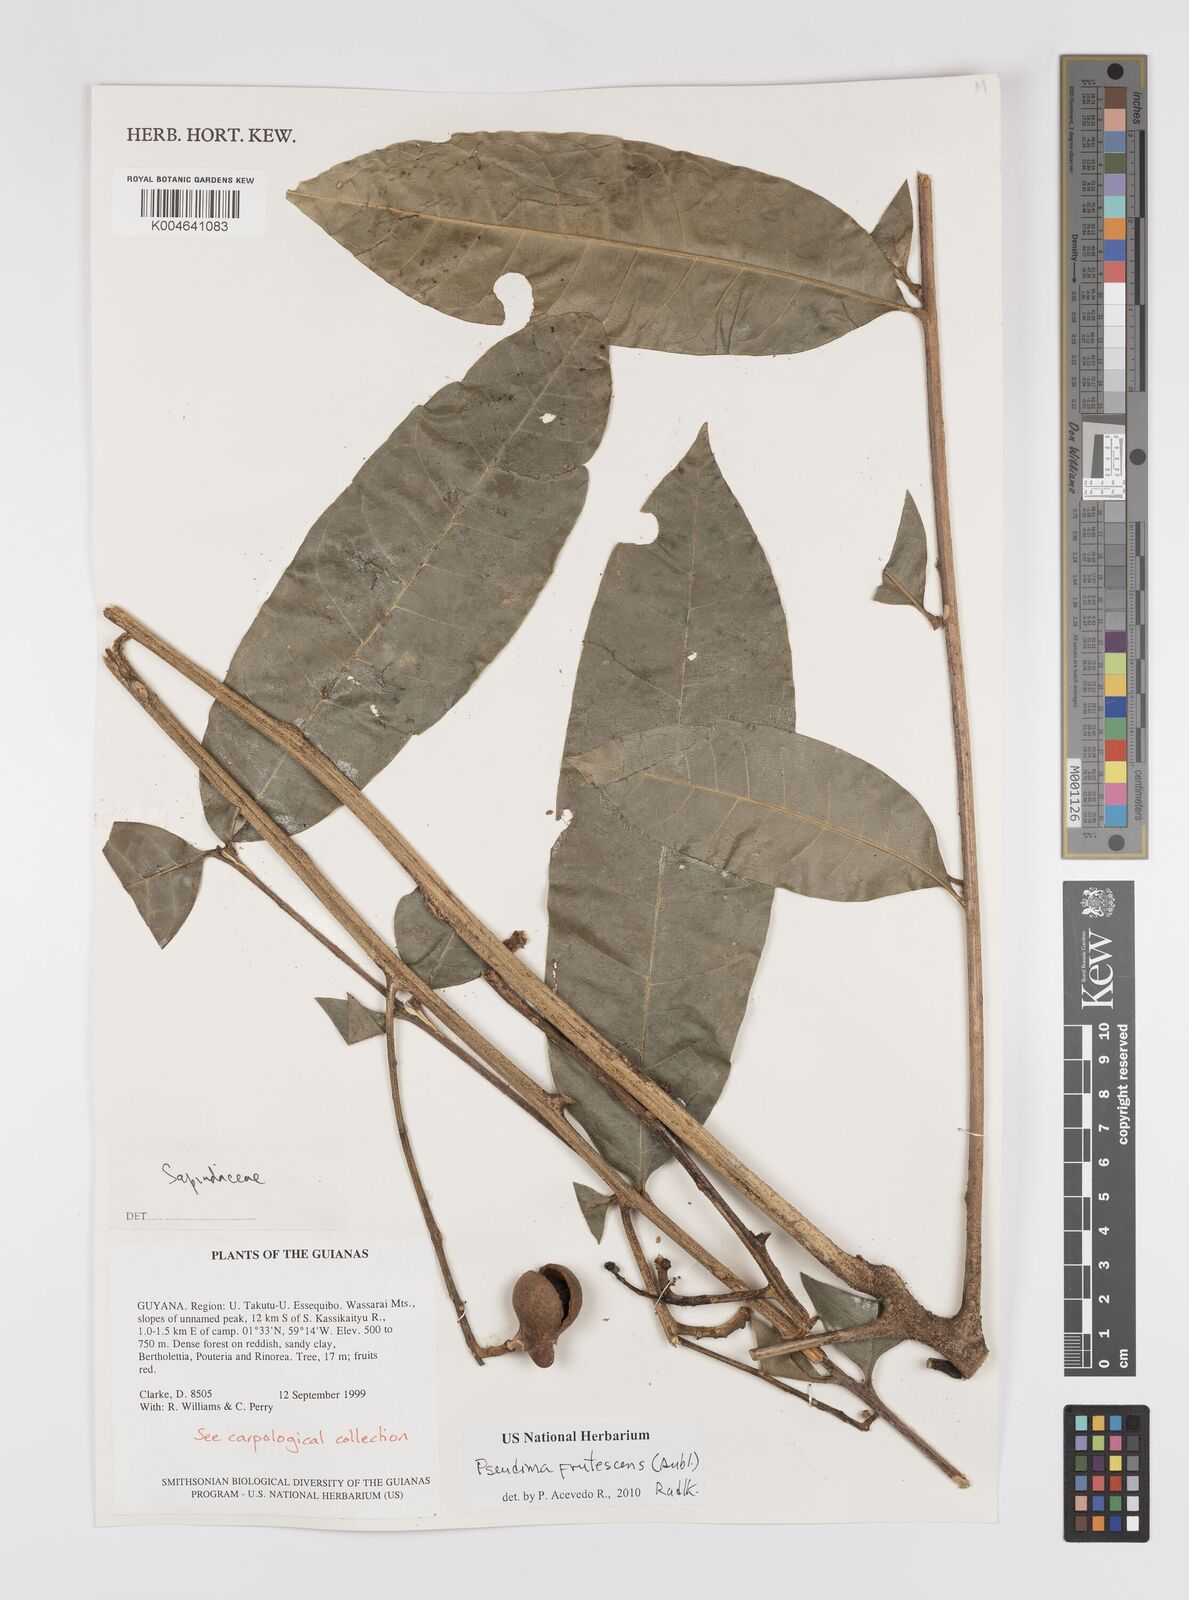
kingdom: Plantae
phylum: Tracheophyta
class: Magnoliopsida
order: Sapindales
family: Sapindaceae
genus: Pseudima
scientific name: Pseudima frutescens
